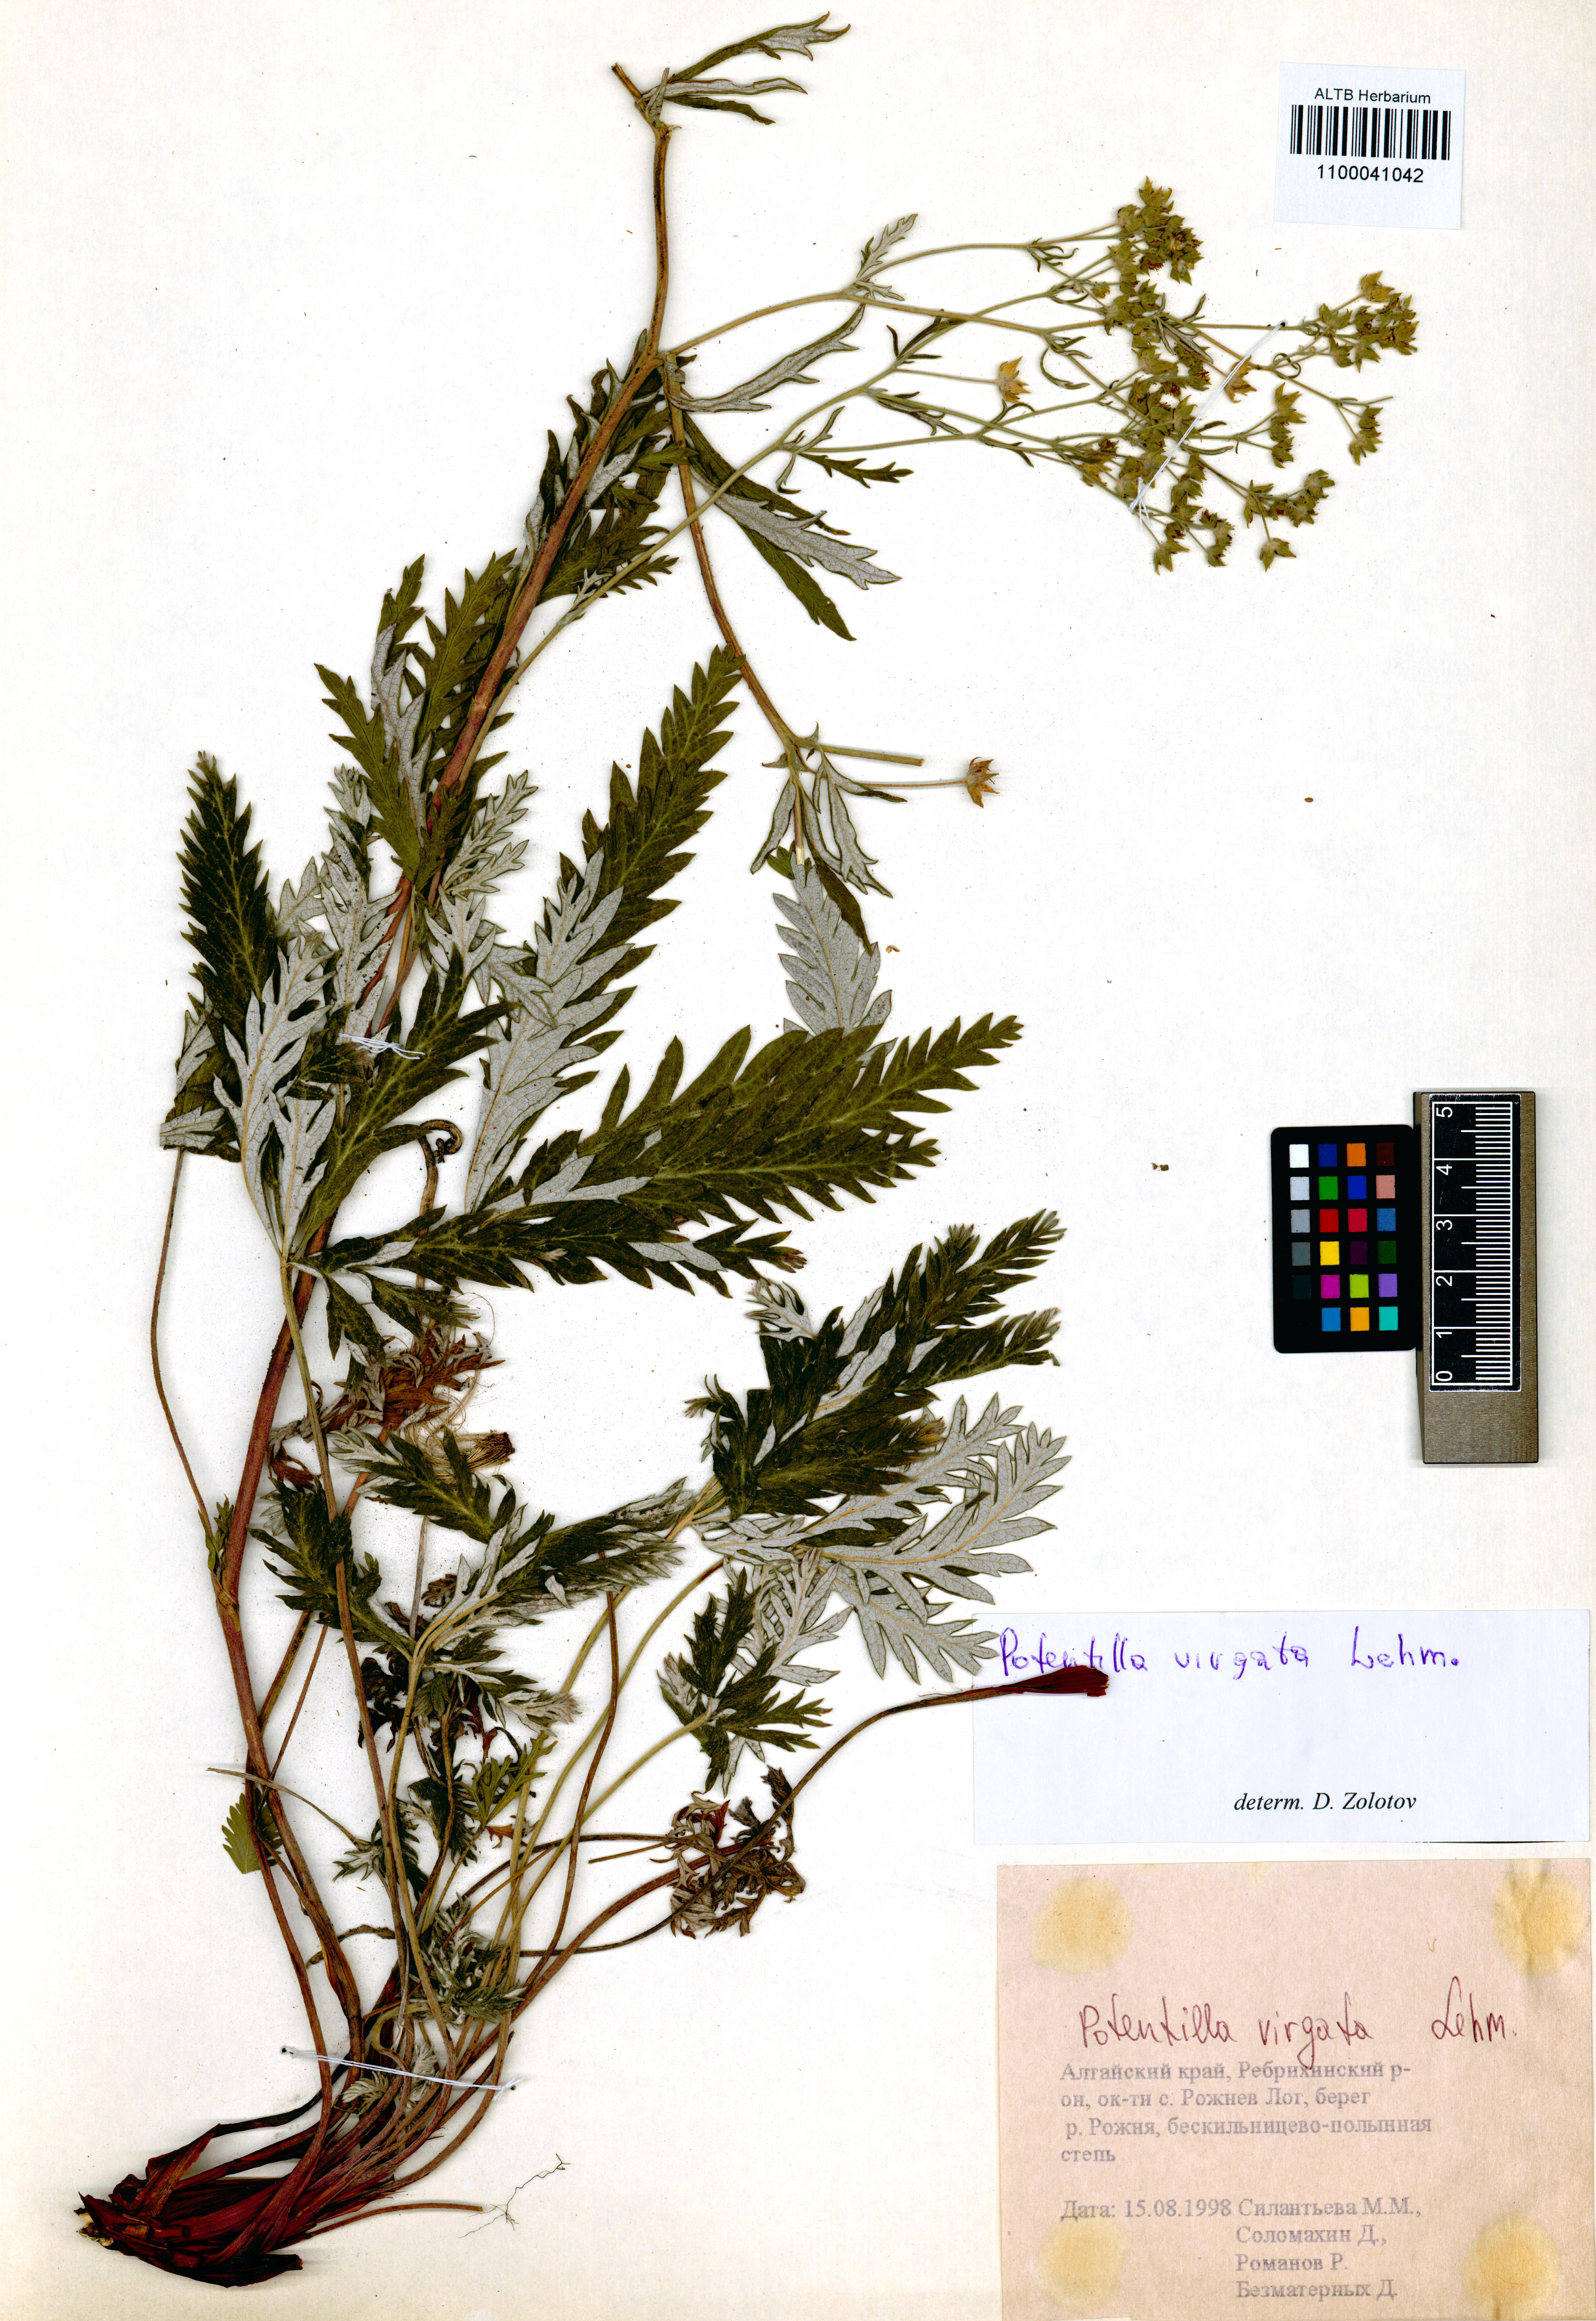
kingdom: Plantae
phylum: Tracheophyta
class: Magnoliopsida
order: Rosales
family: Rosaceae
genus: Potentilla
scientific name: Potentilla virgata
